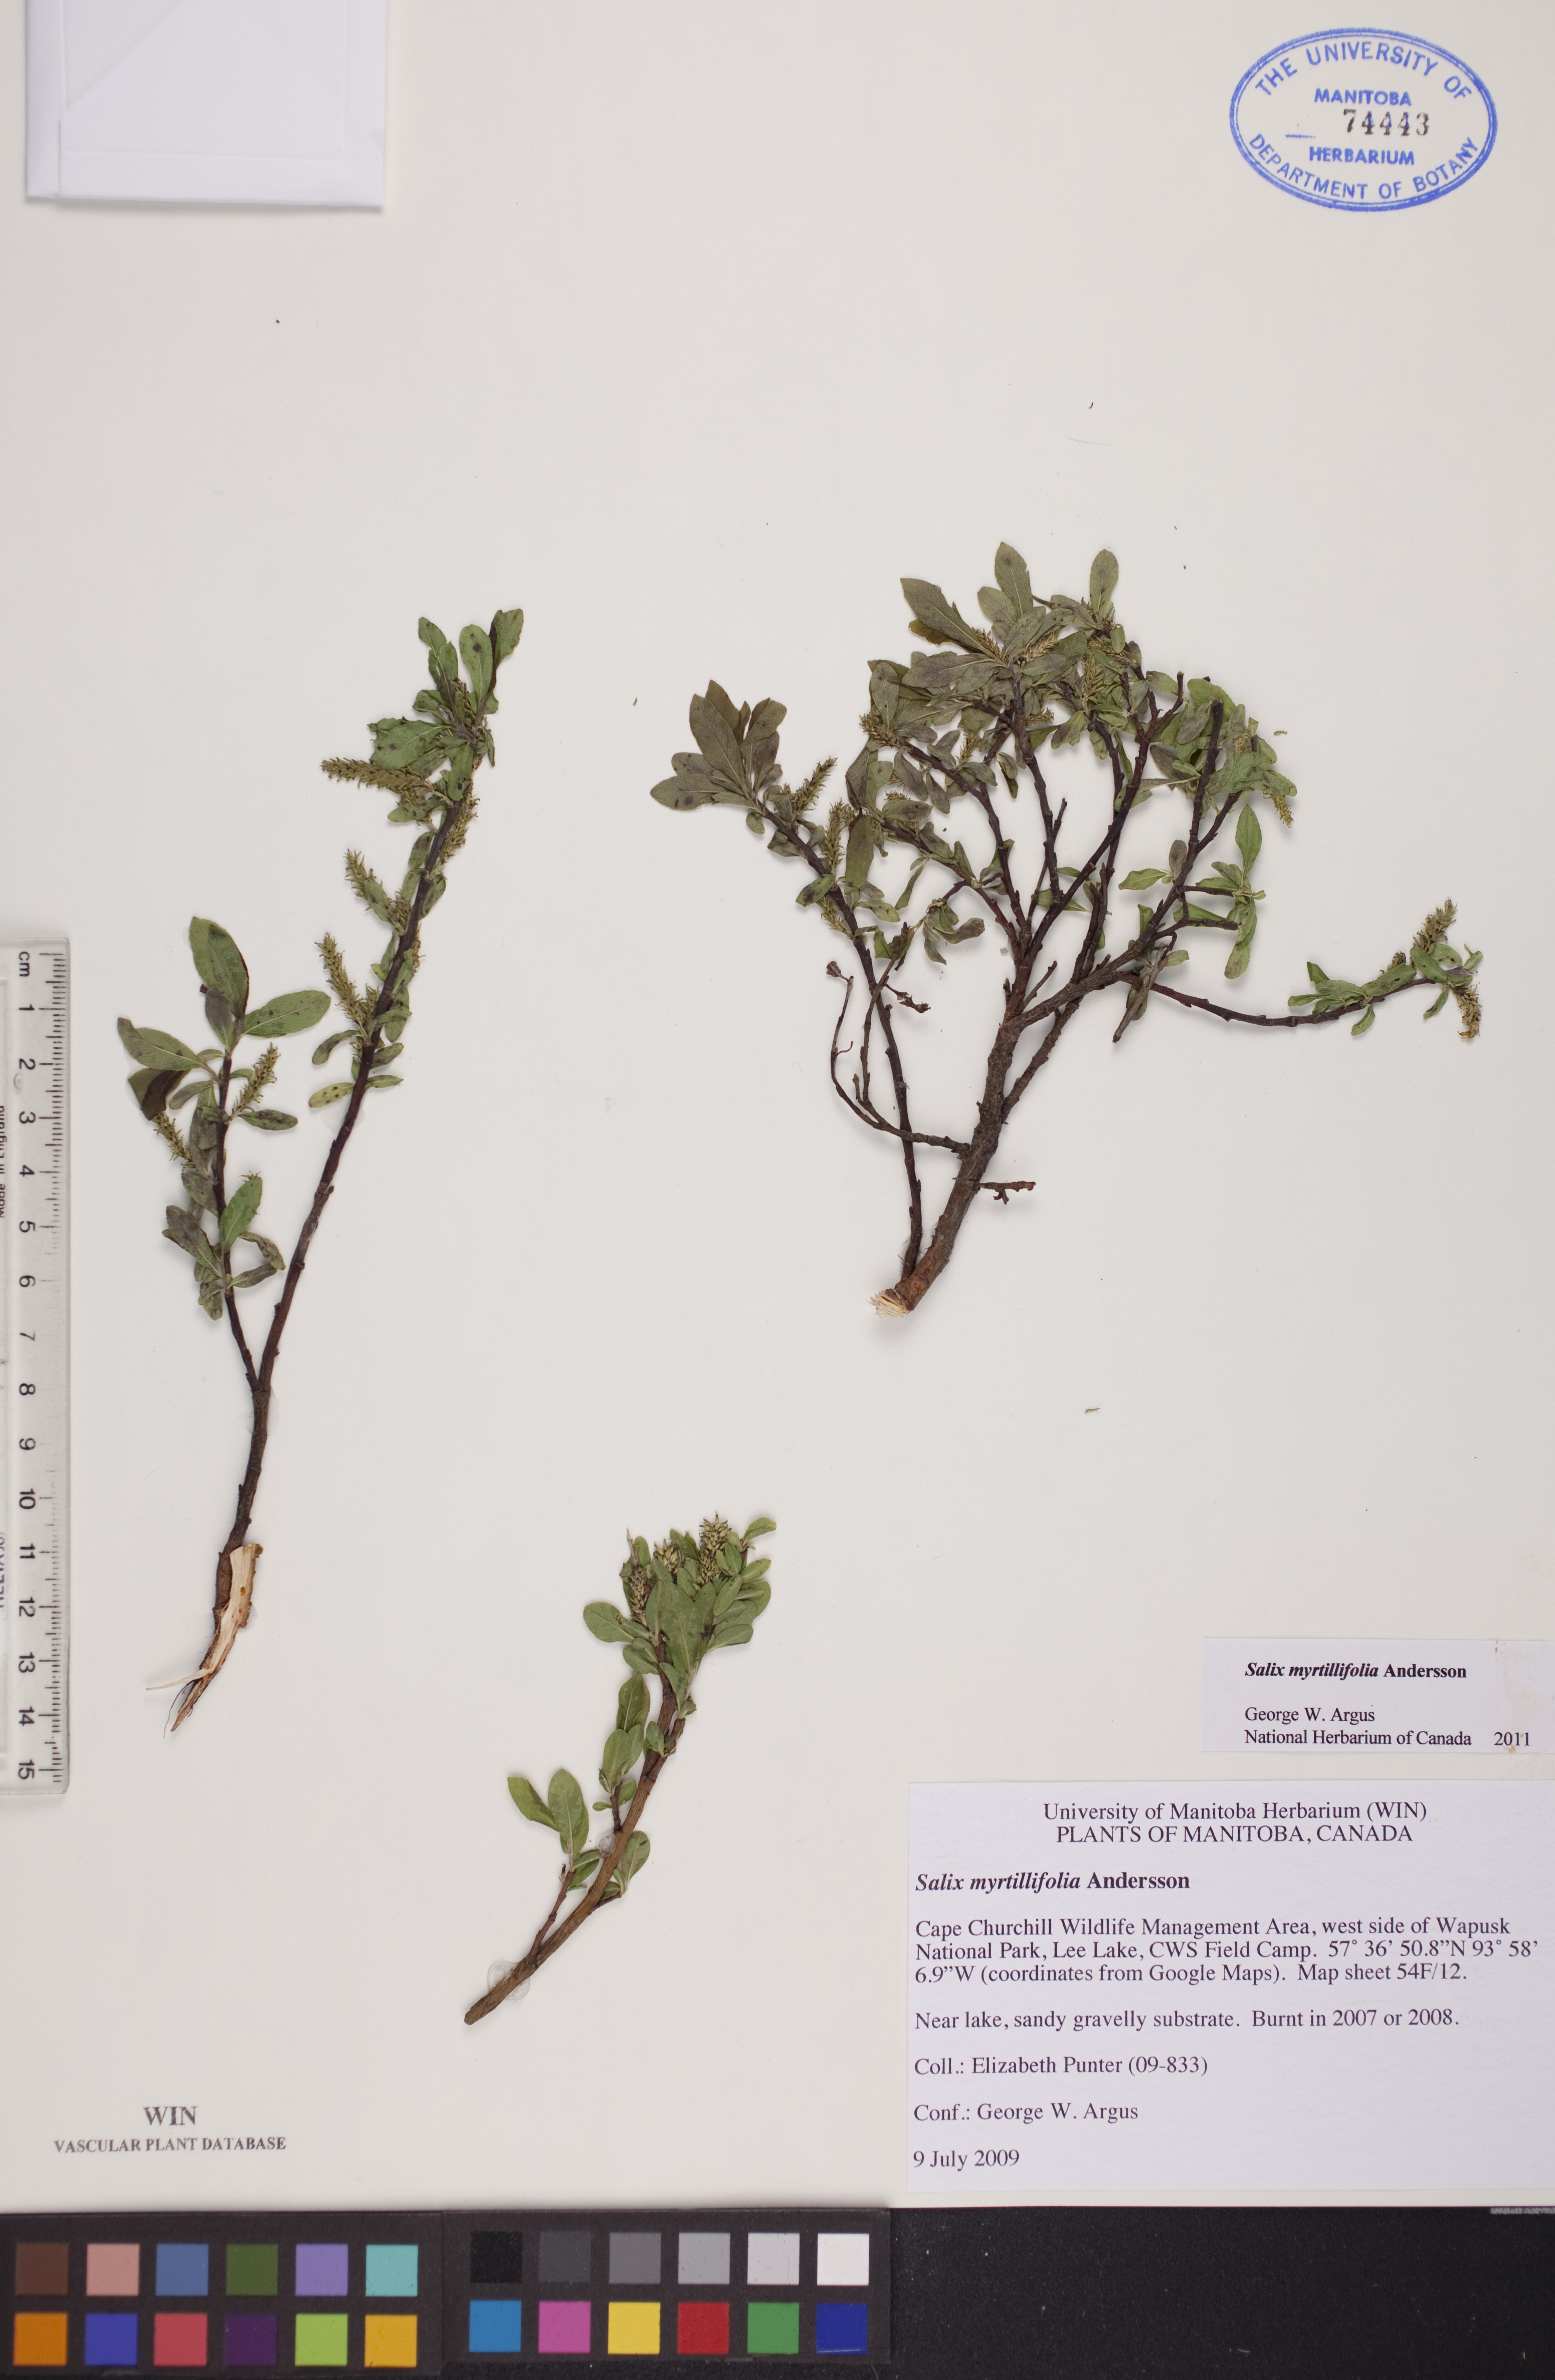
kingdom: Plantae
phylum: Tracheophyta
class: Magnoliopsida
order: Malpighiales
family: Salicaceae
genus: Salix
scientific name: Salix myrtillifolia
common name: Bilberry willow
